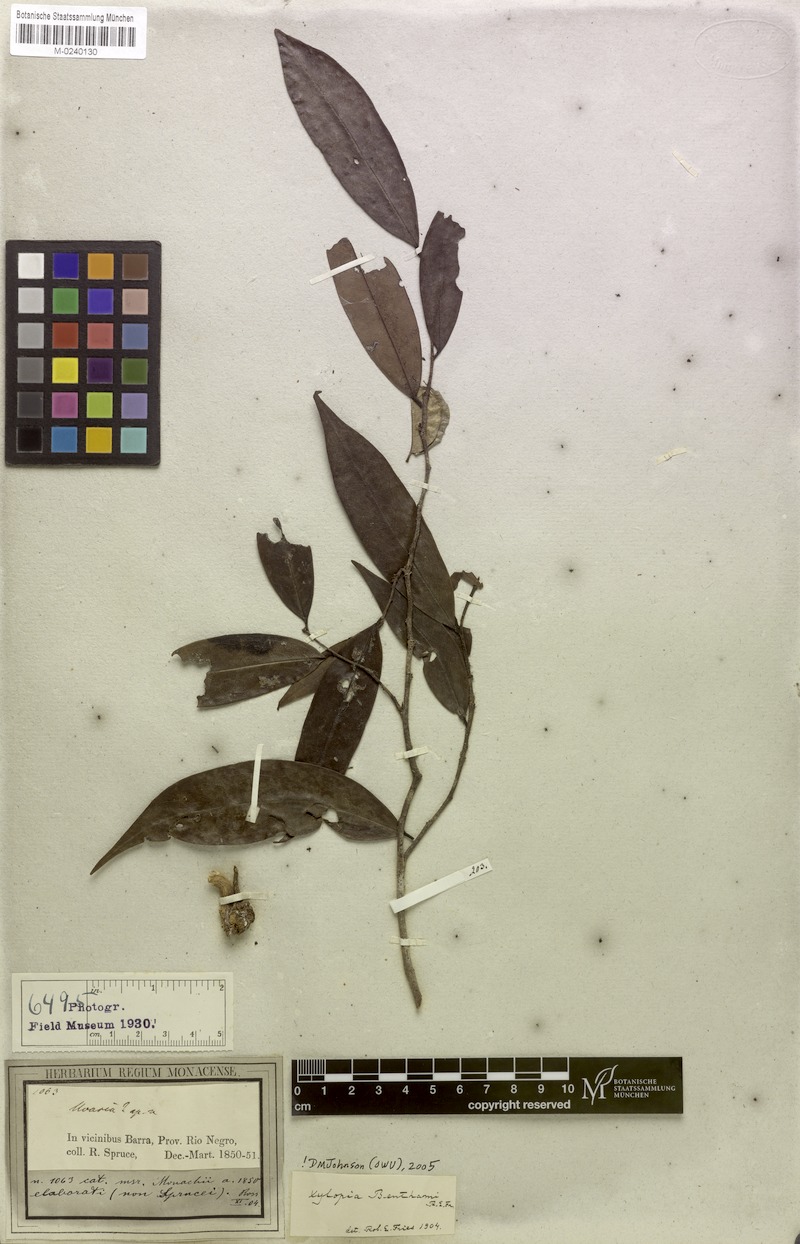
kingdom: Plantae
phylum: Tracheophyta
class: Magnoliopsida
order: Magnoliales
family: Annonaceae
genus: Xylopia
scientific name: Xylopia benthamii
